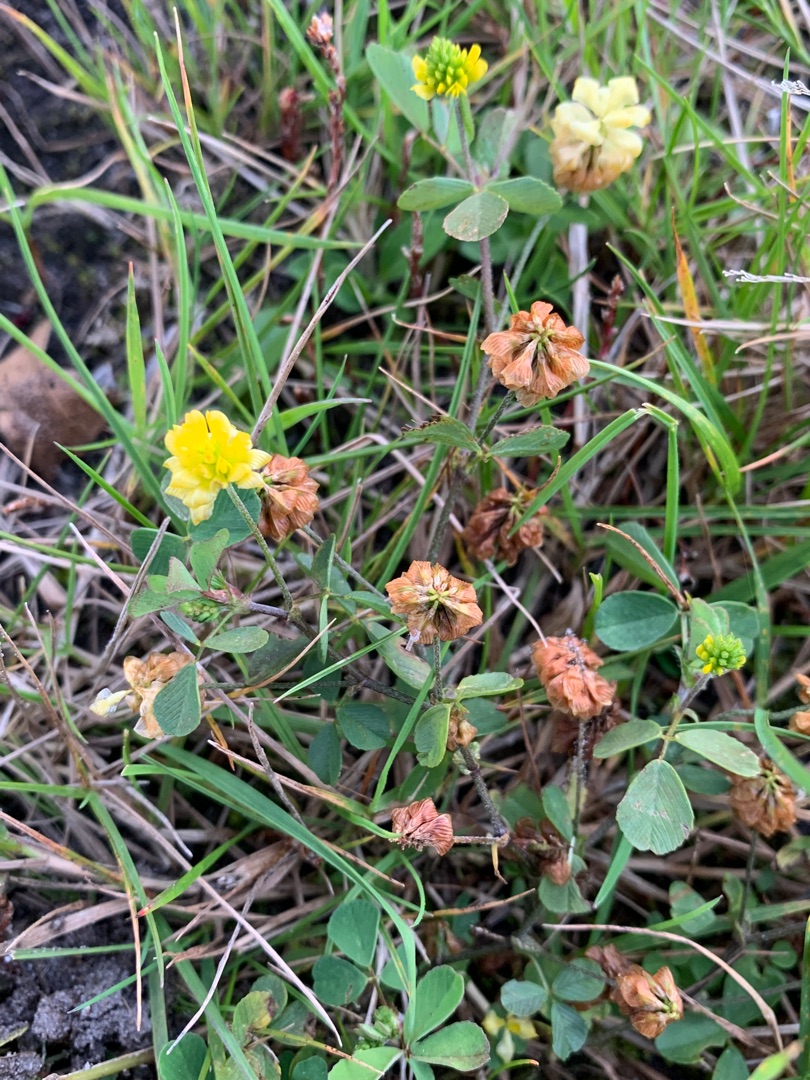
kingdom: Plantae
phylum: Tracheophyta
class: Magnoliopsida
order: Fabales
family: Fabaceae
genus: Trifolium
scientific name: Trifolium campestre
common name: Gul kløver
